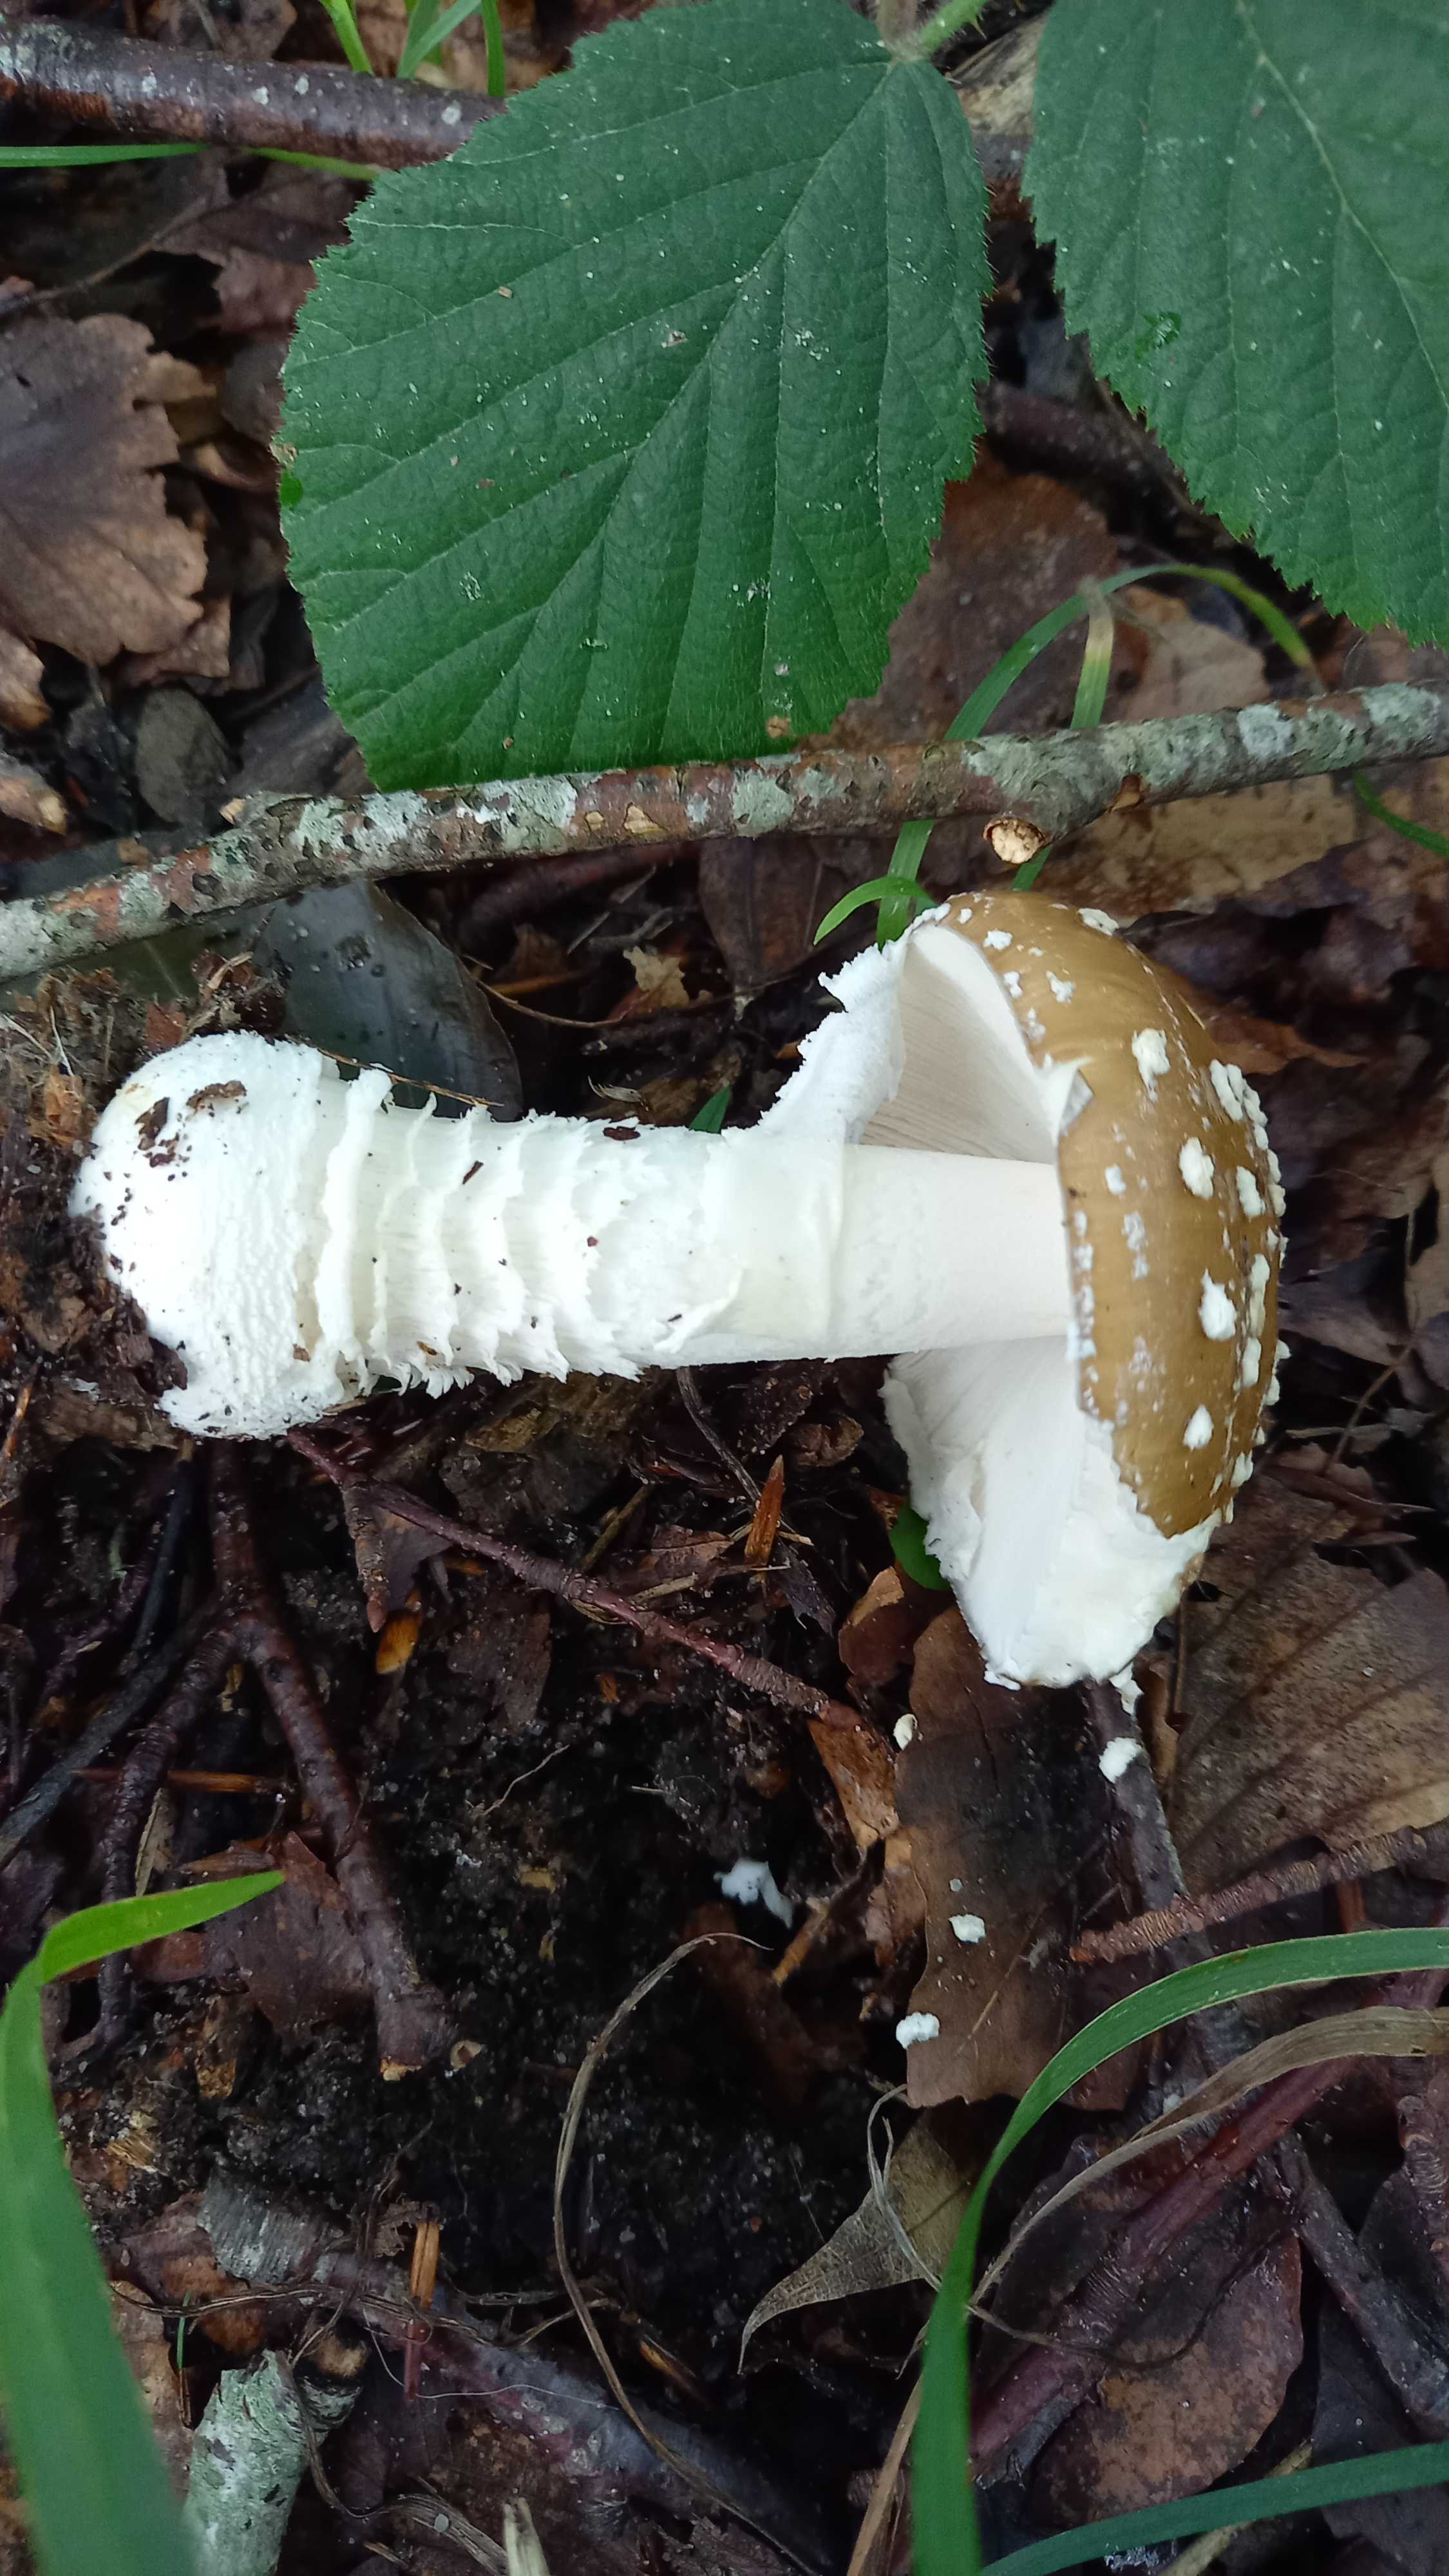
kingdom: Fungi
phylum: Basidiomycota
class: Agaricomycetes
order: Agaricales
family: Amanitaceae
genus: Amanita
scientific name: Amanita pantherina
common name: panter-fluesvamp
